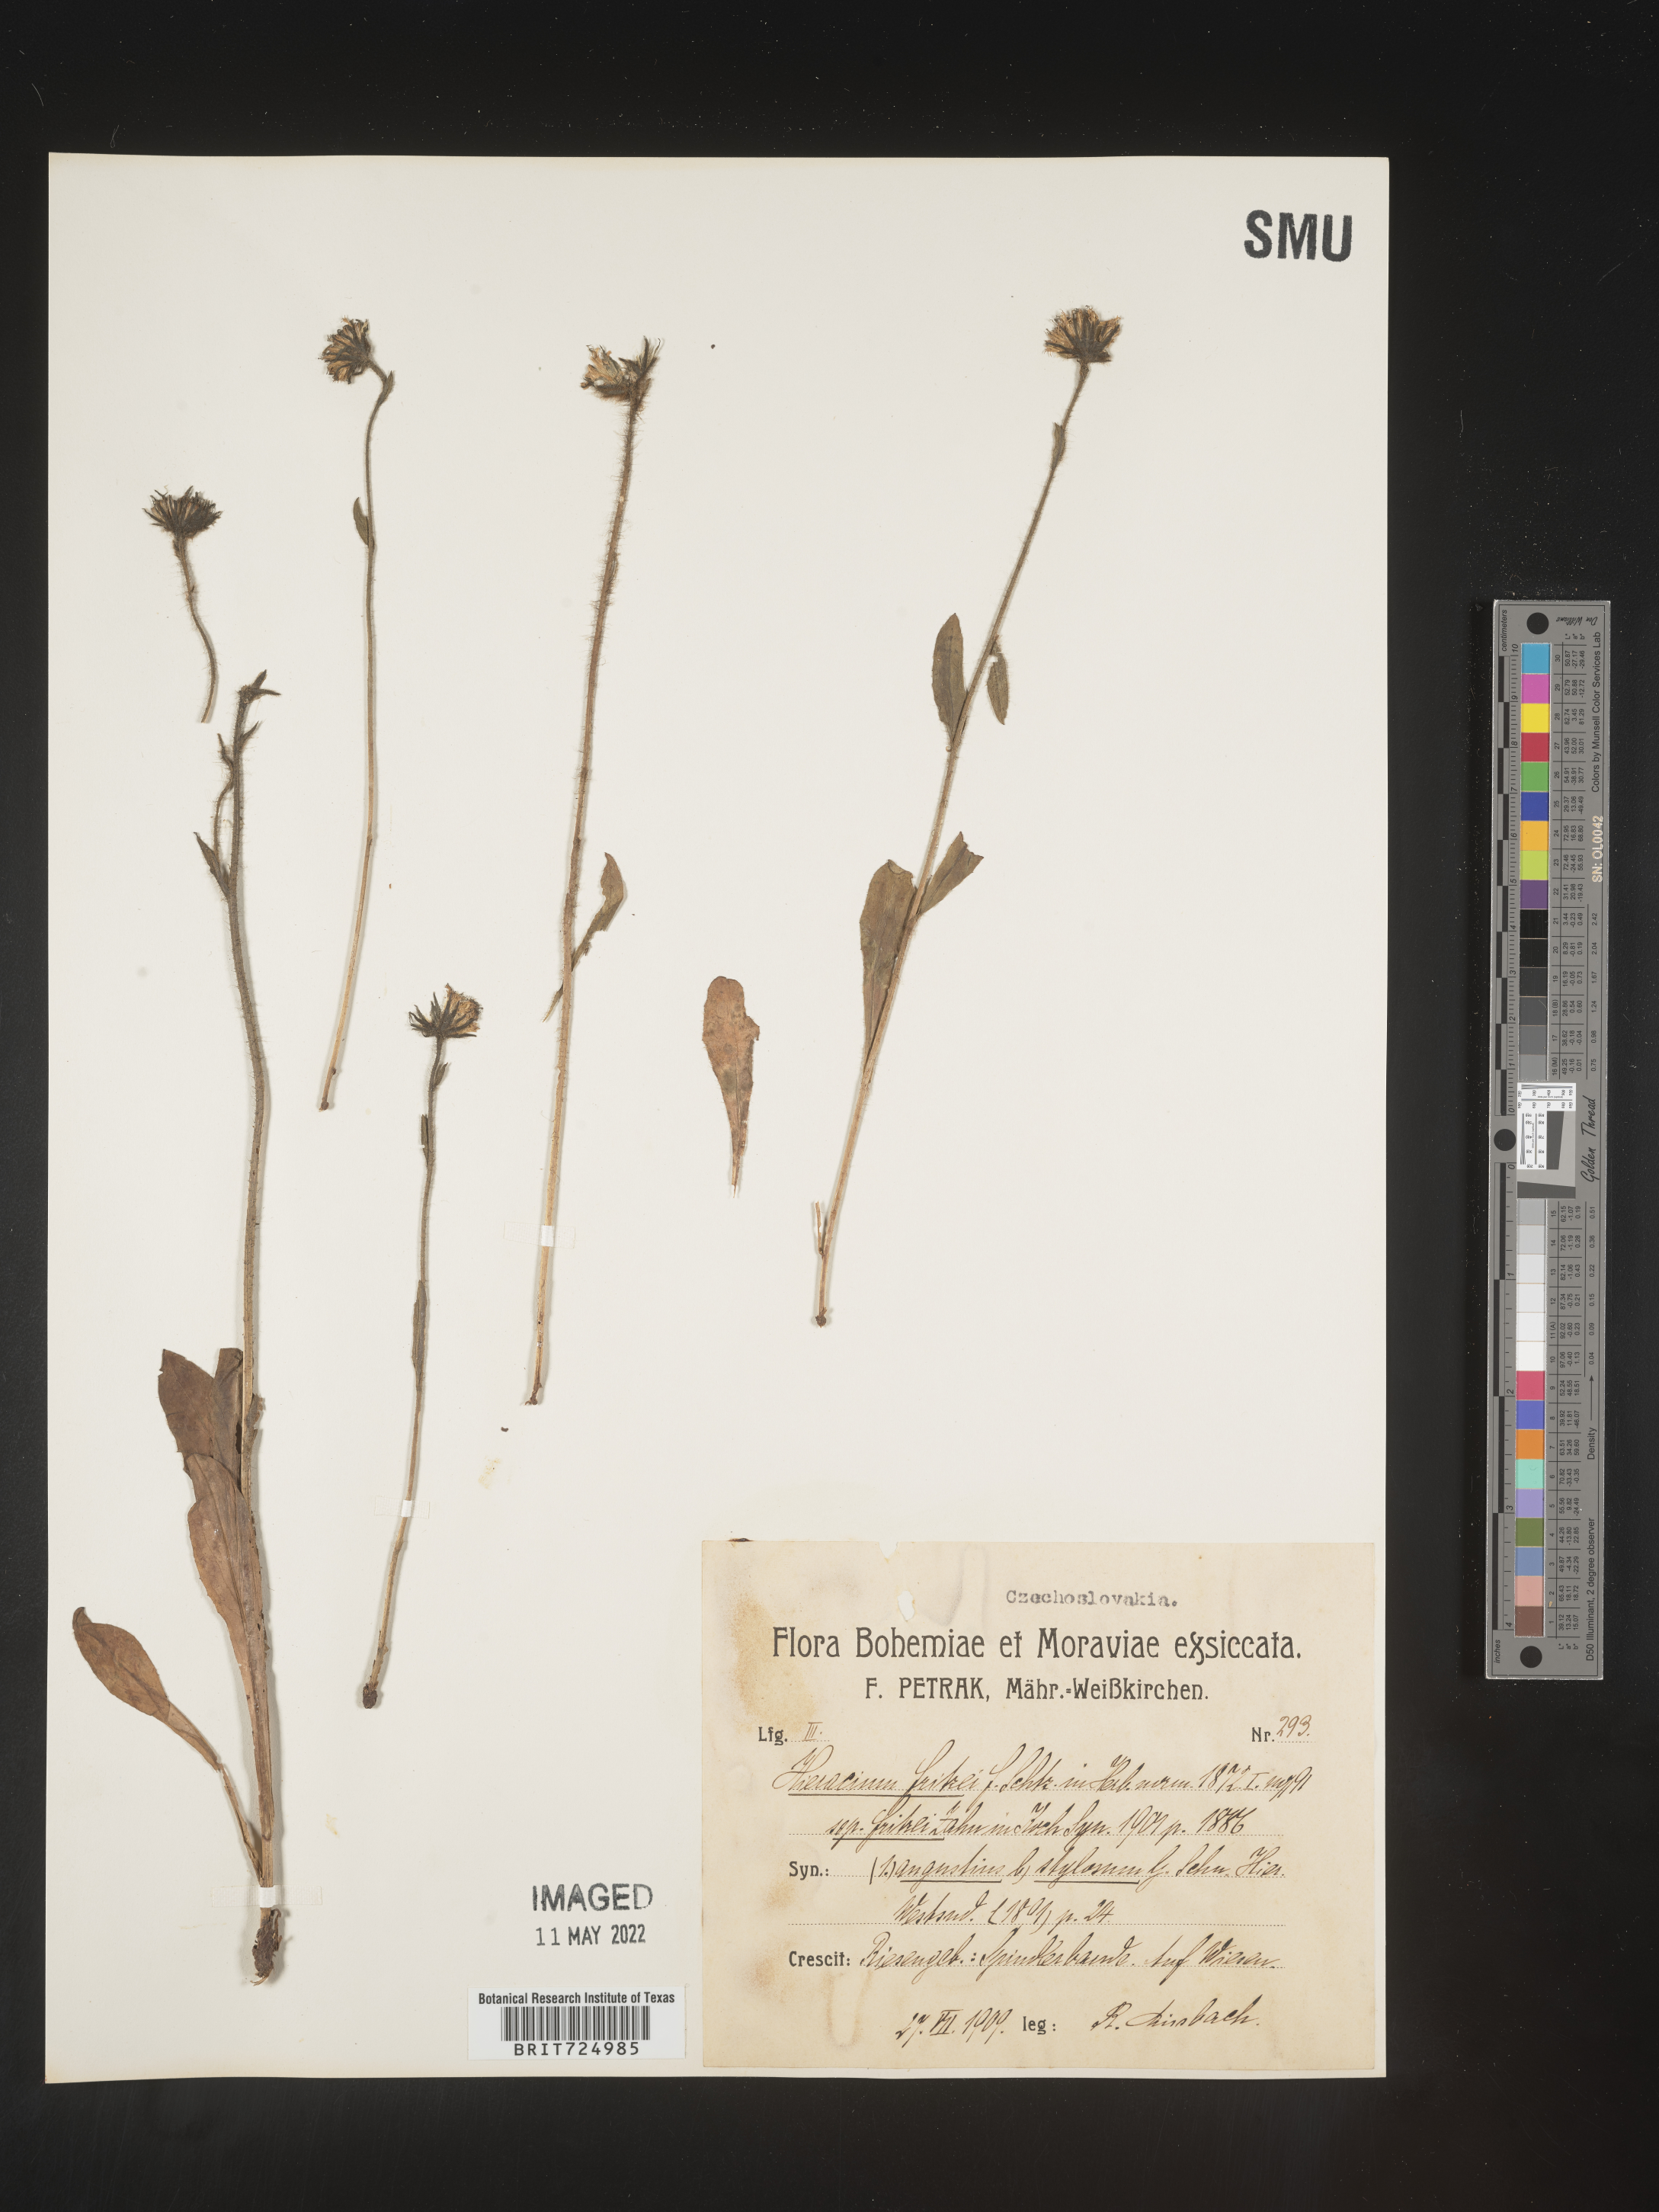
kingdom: Plantae
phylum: Tracheophyta
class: Magnoliopsida
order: Asterales
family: Asteraceae
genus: Hieracium
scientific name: Hieracium
